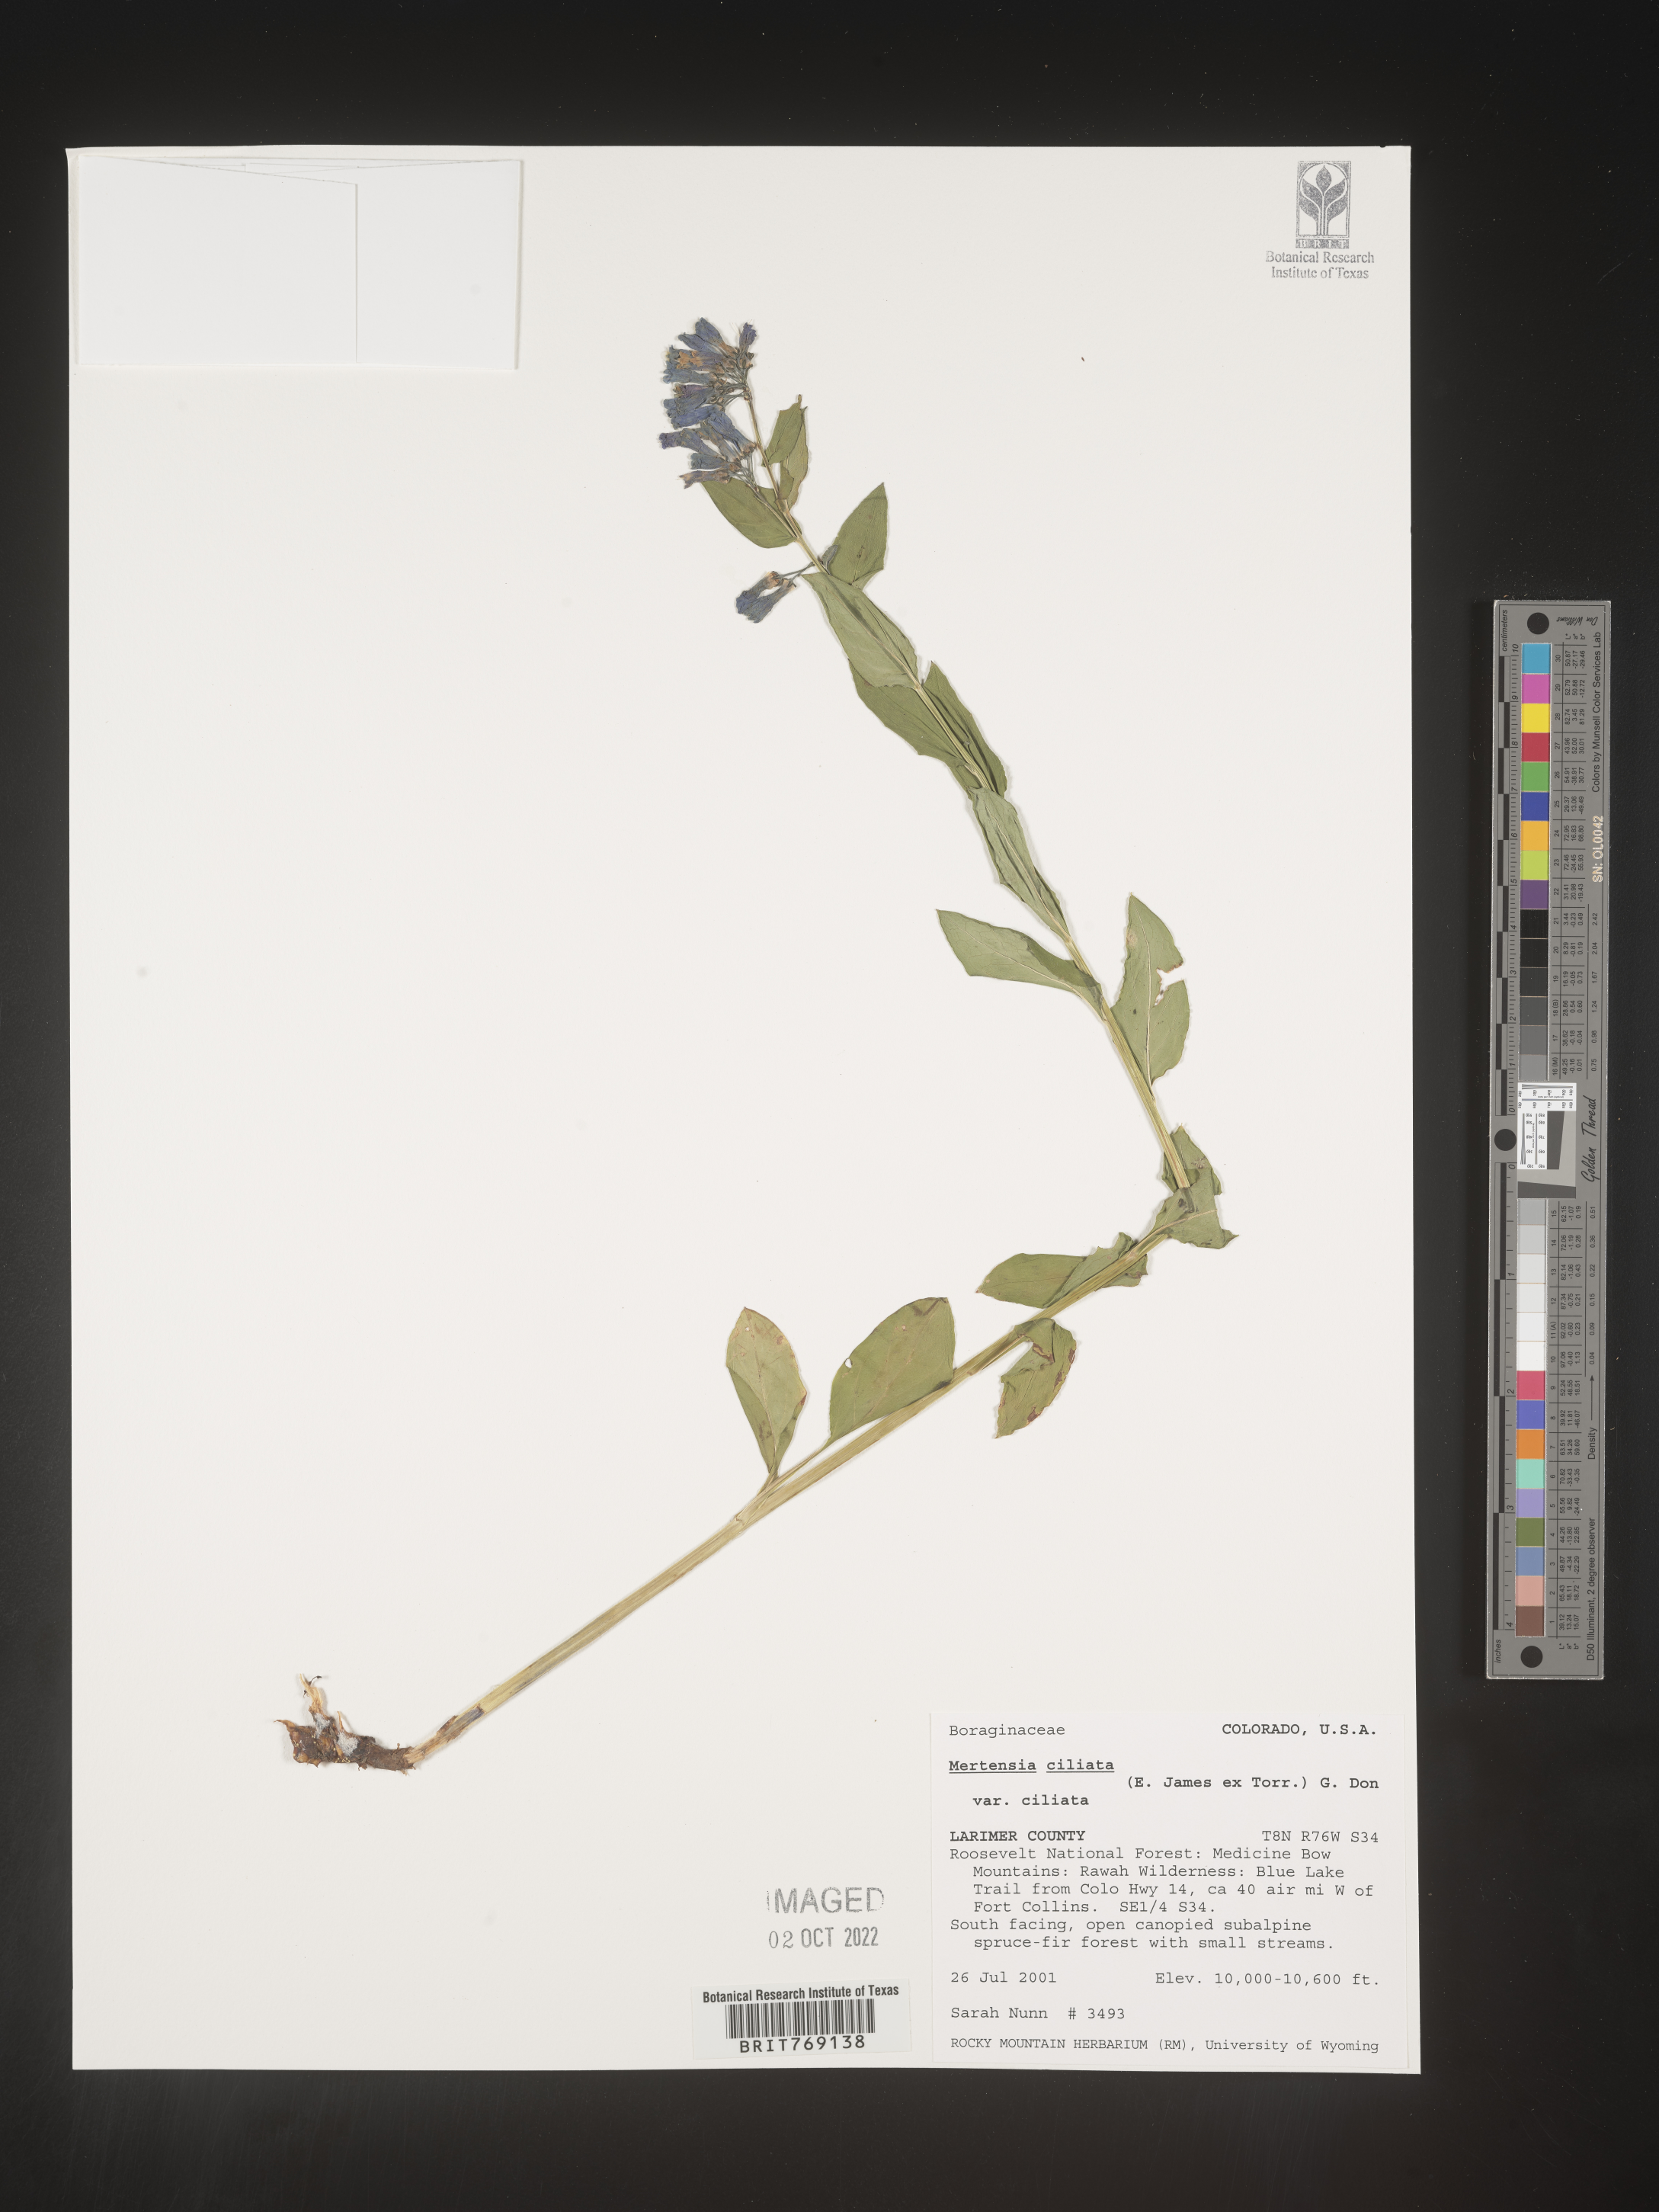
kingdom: Plantae
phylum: Tracheophyta
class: Magnoliopsida
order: Boraginales
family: Boraginaceae
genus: Mertensia
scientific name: Mertensia
